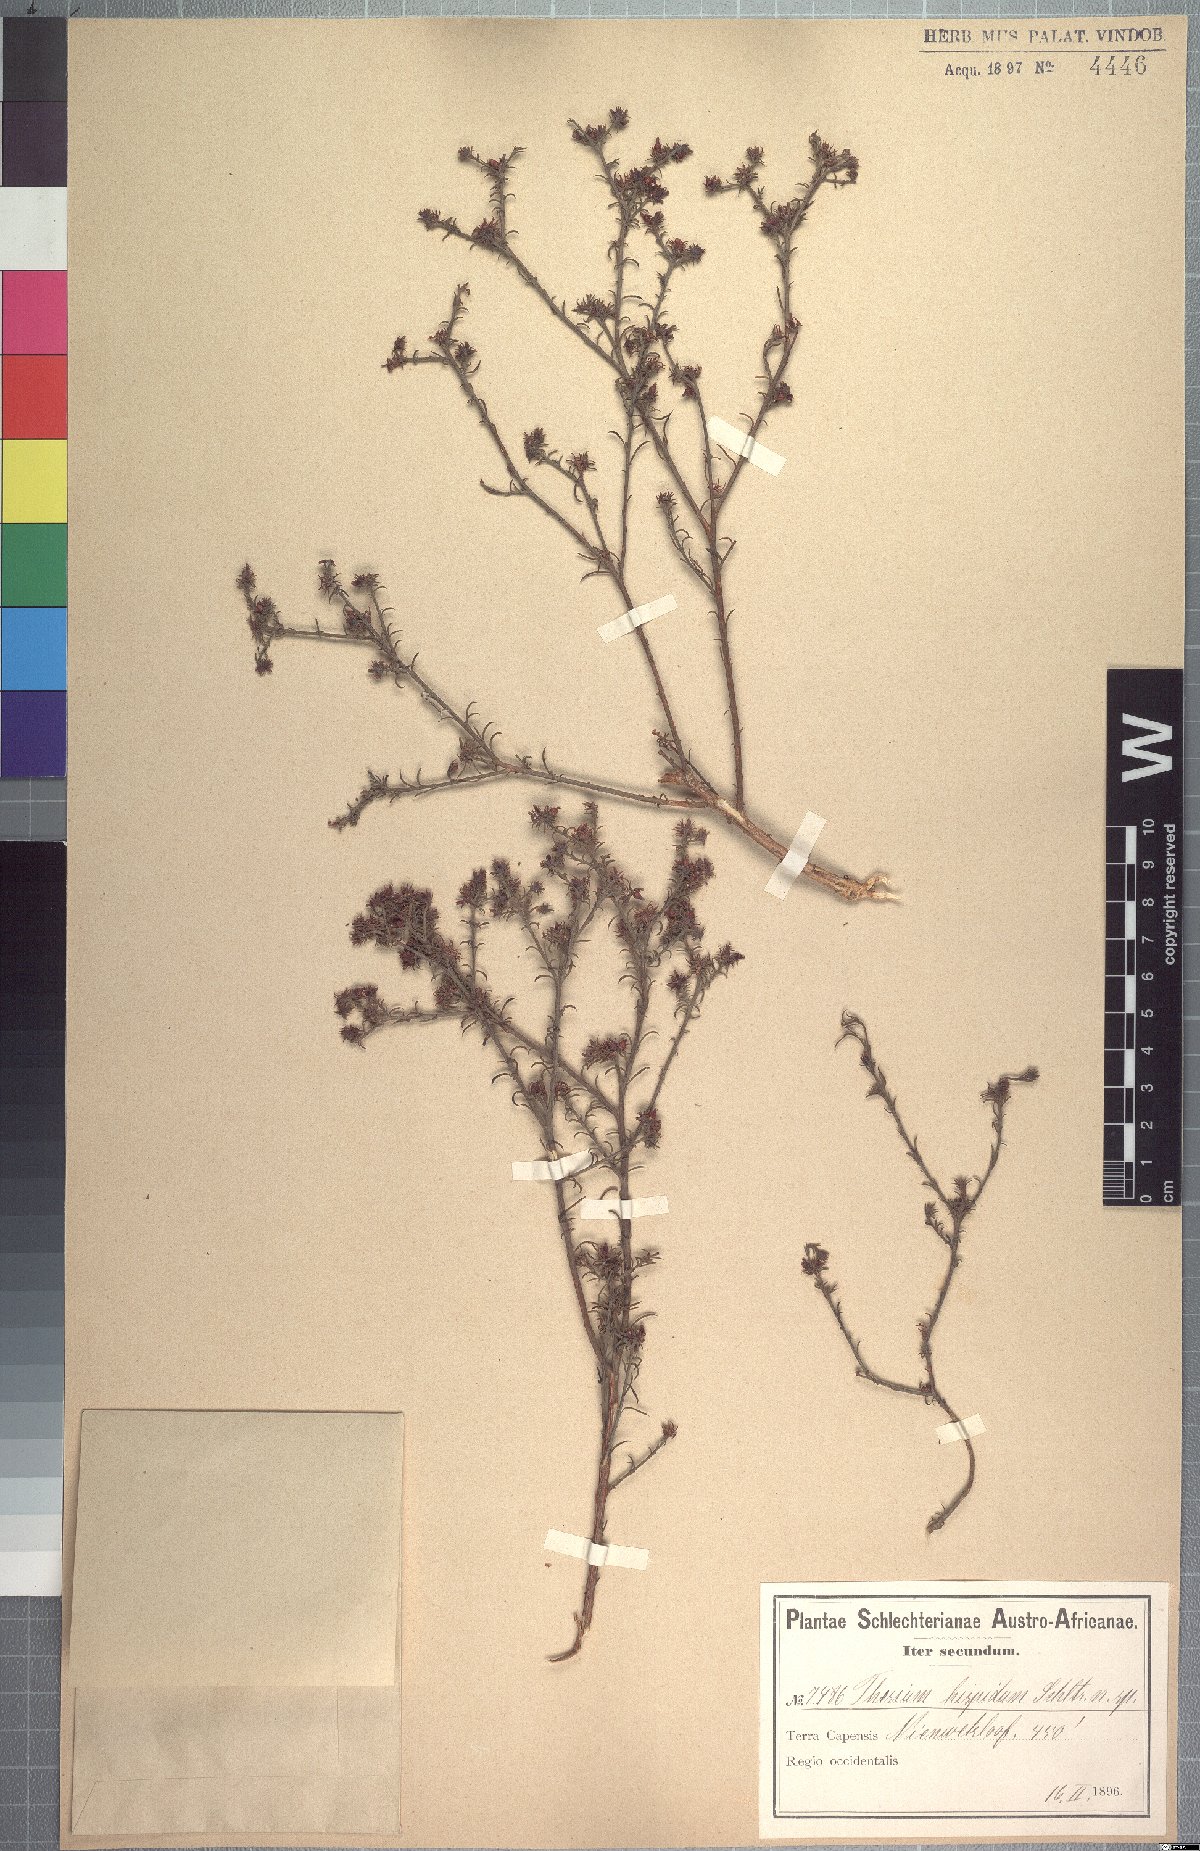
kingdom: Plantae
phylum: Tracheophyta
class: Magnoliopsida
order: Santalales
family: Thesiaceae
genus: Thesium
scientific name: Thesium hispidum
